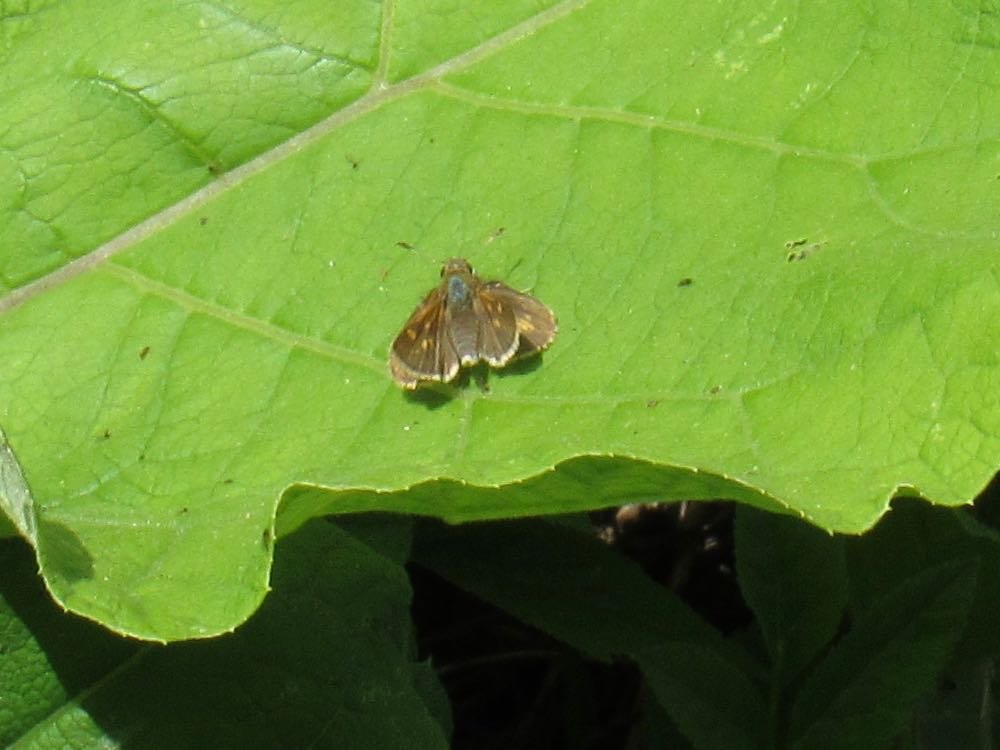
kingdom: Animalia
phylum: Arthropoda
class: Insecta
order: Lepidoptera
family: Hesperiidae
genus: Polites
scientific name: Polites coras
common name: Peck's Skipper
